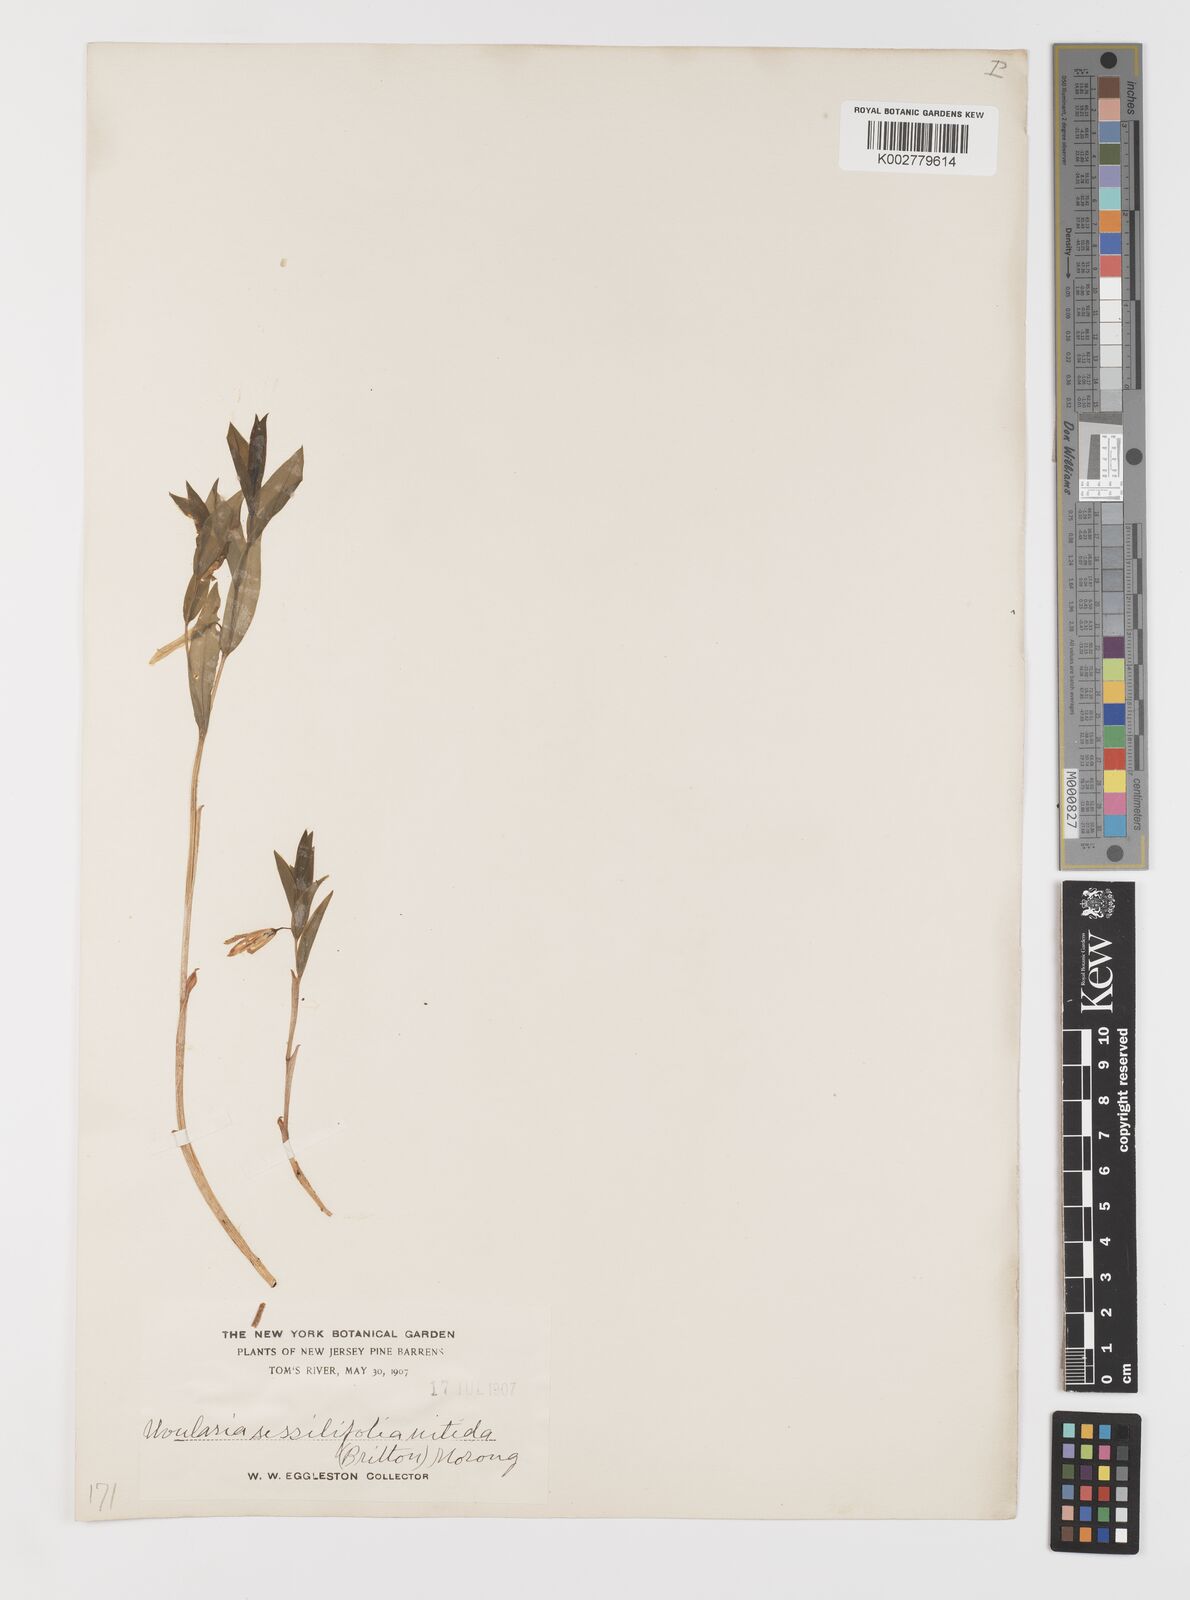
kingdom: Plantae
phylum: Tracheophyta
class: Liliopsida
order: Liliales
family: Colchicaceae
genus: Uvularia
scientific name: Uvularia sessilifolia
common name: Straw-lily
